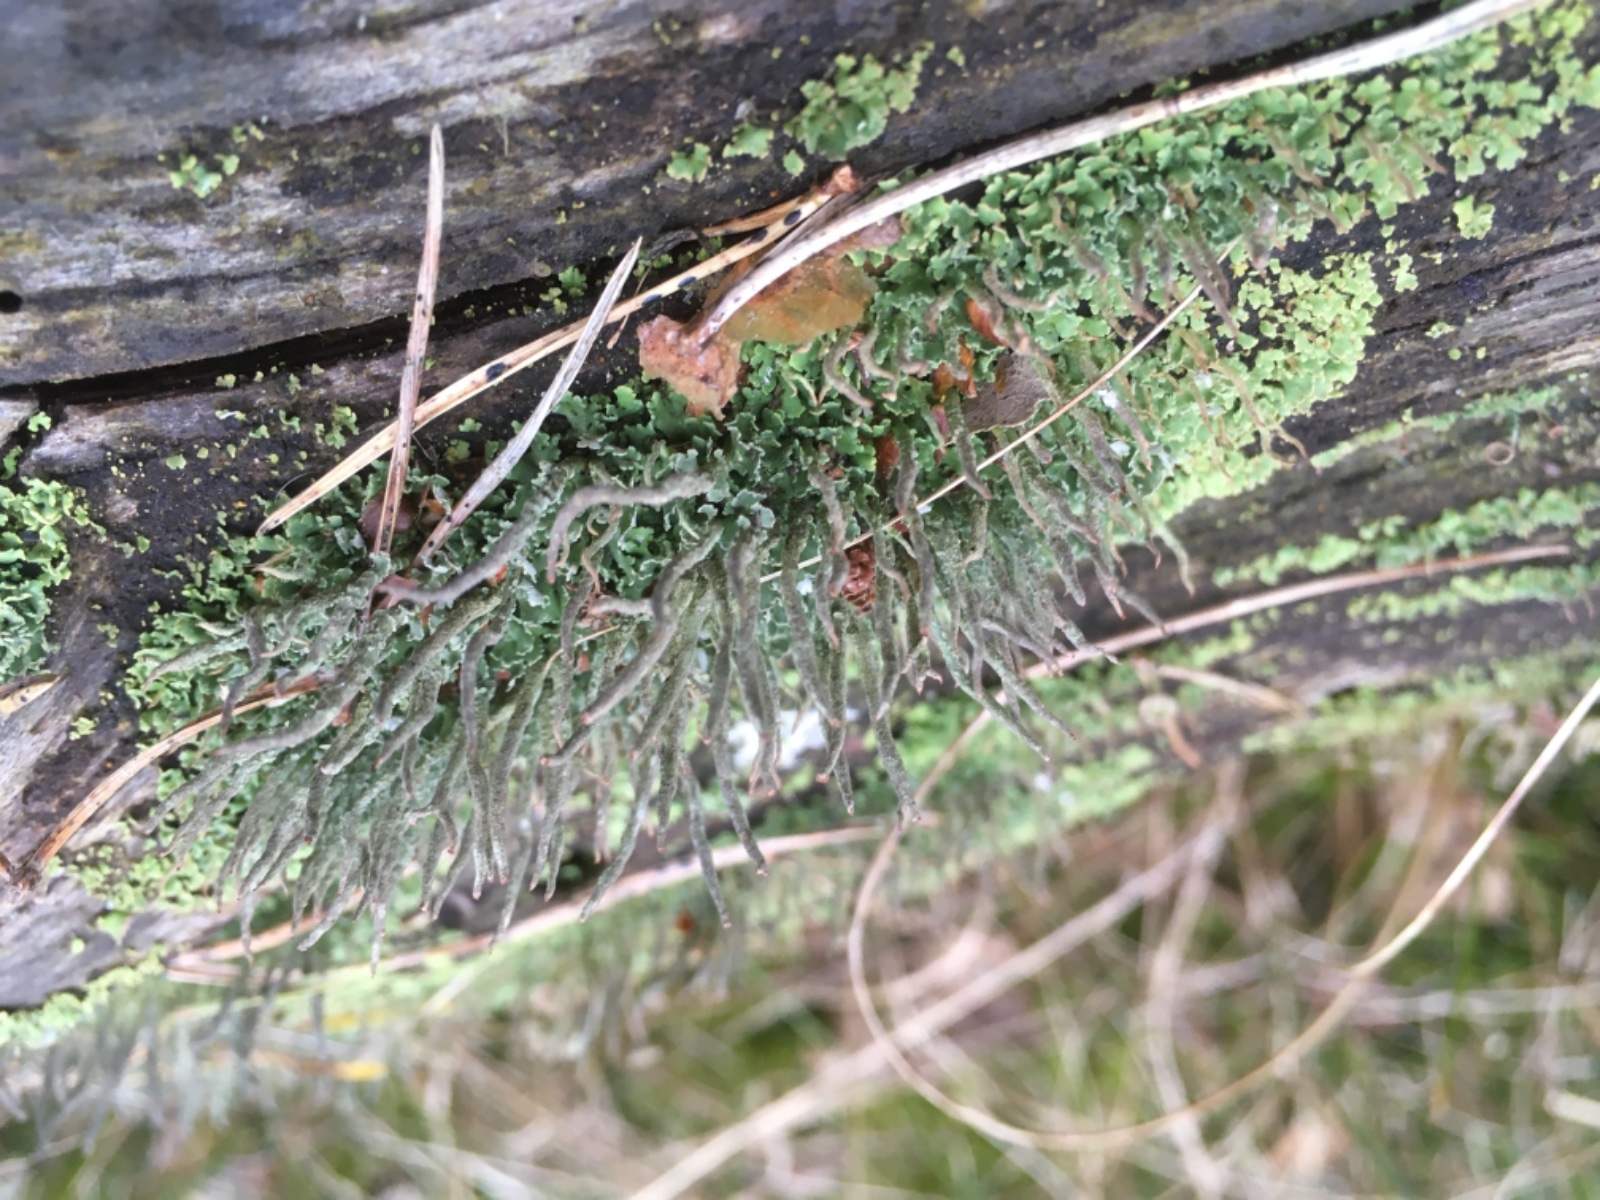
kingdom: Fungi
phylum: Ascomycota
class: Lecanoromycetes
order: Lecanorales
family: Cladoniaceae
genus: Cladonia
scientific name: Cladonia
